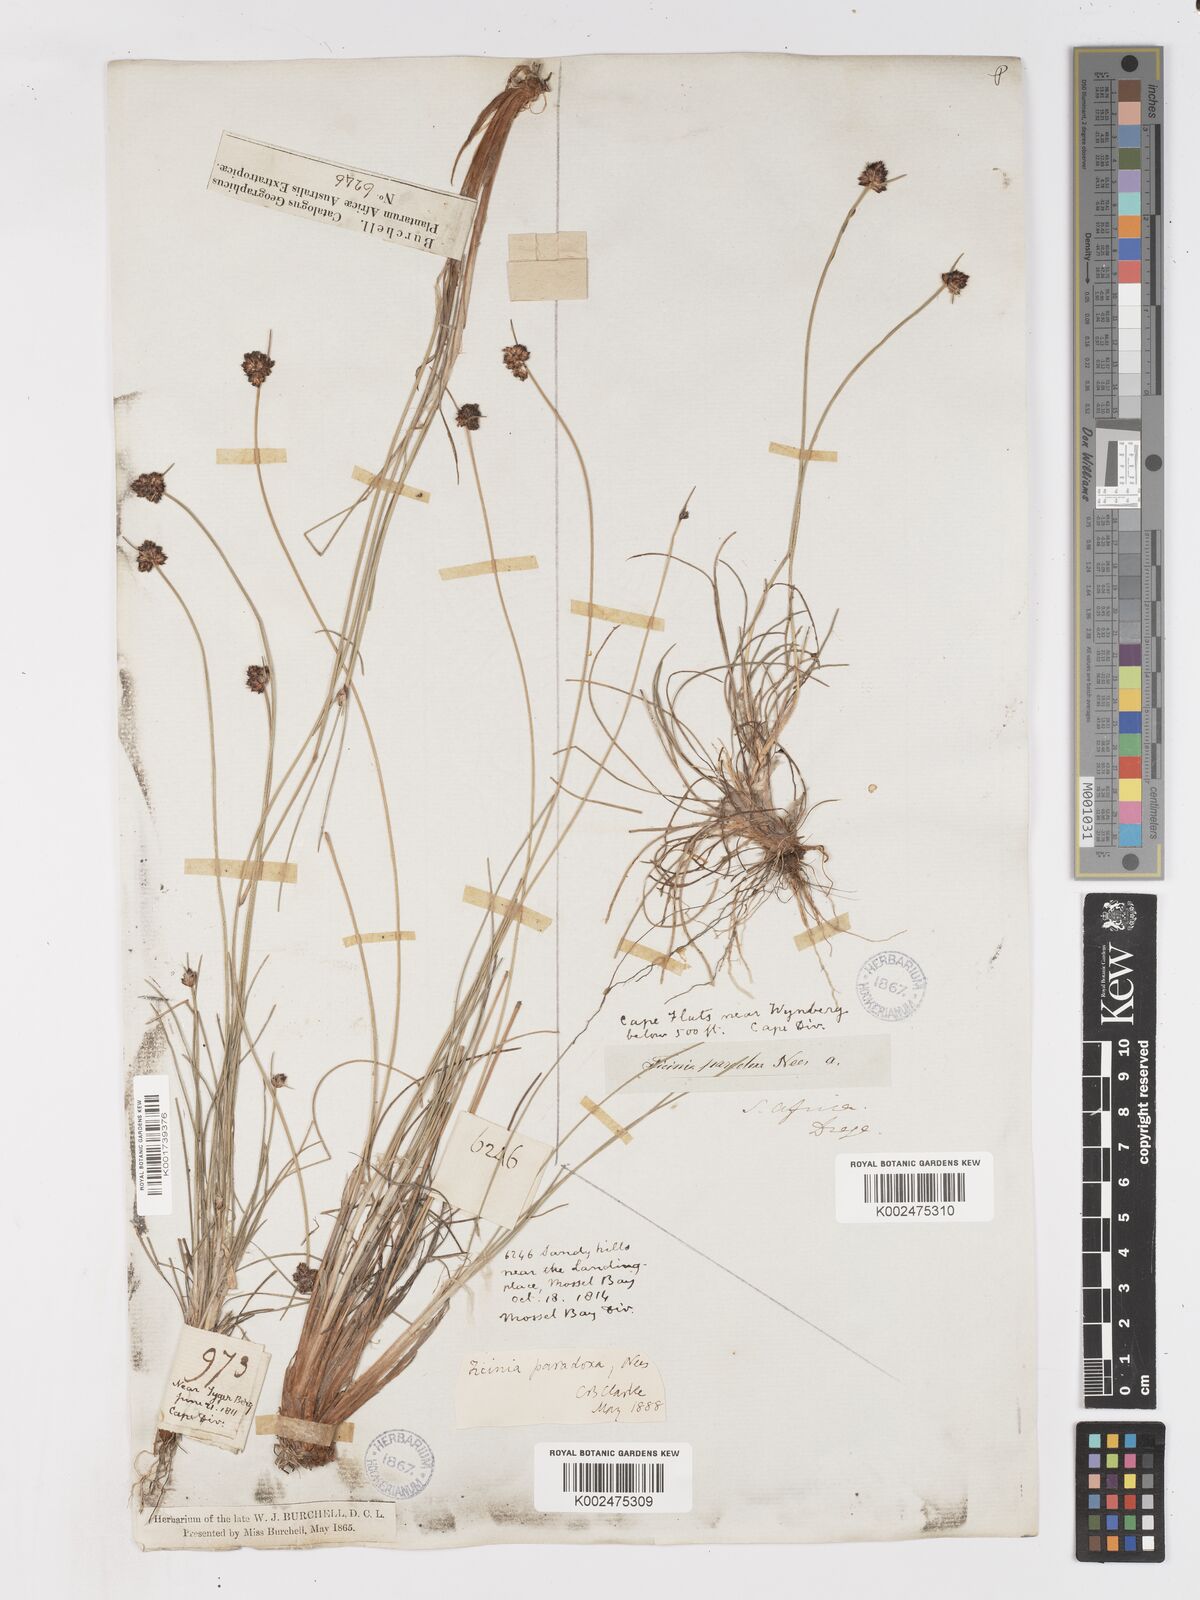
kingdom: Plantae
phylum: Tracheophyta
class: Liliopsida
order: Poales
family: Cyperaceae
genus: Ficinia
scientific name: Ficinia paradoxa
